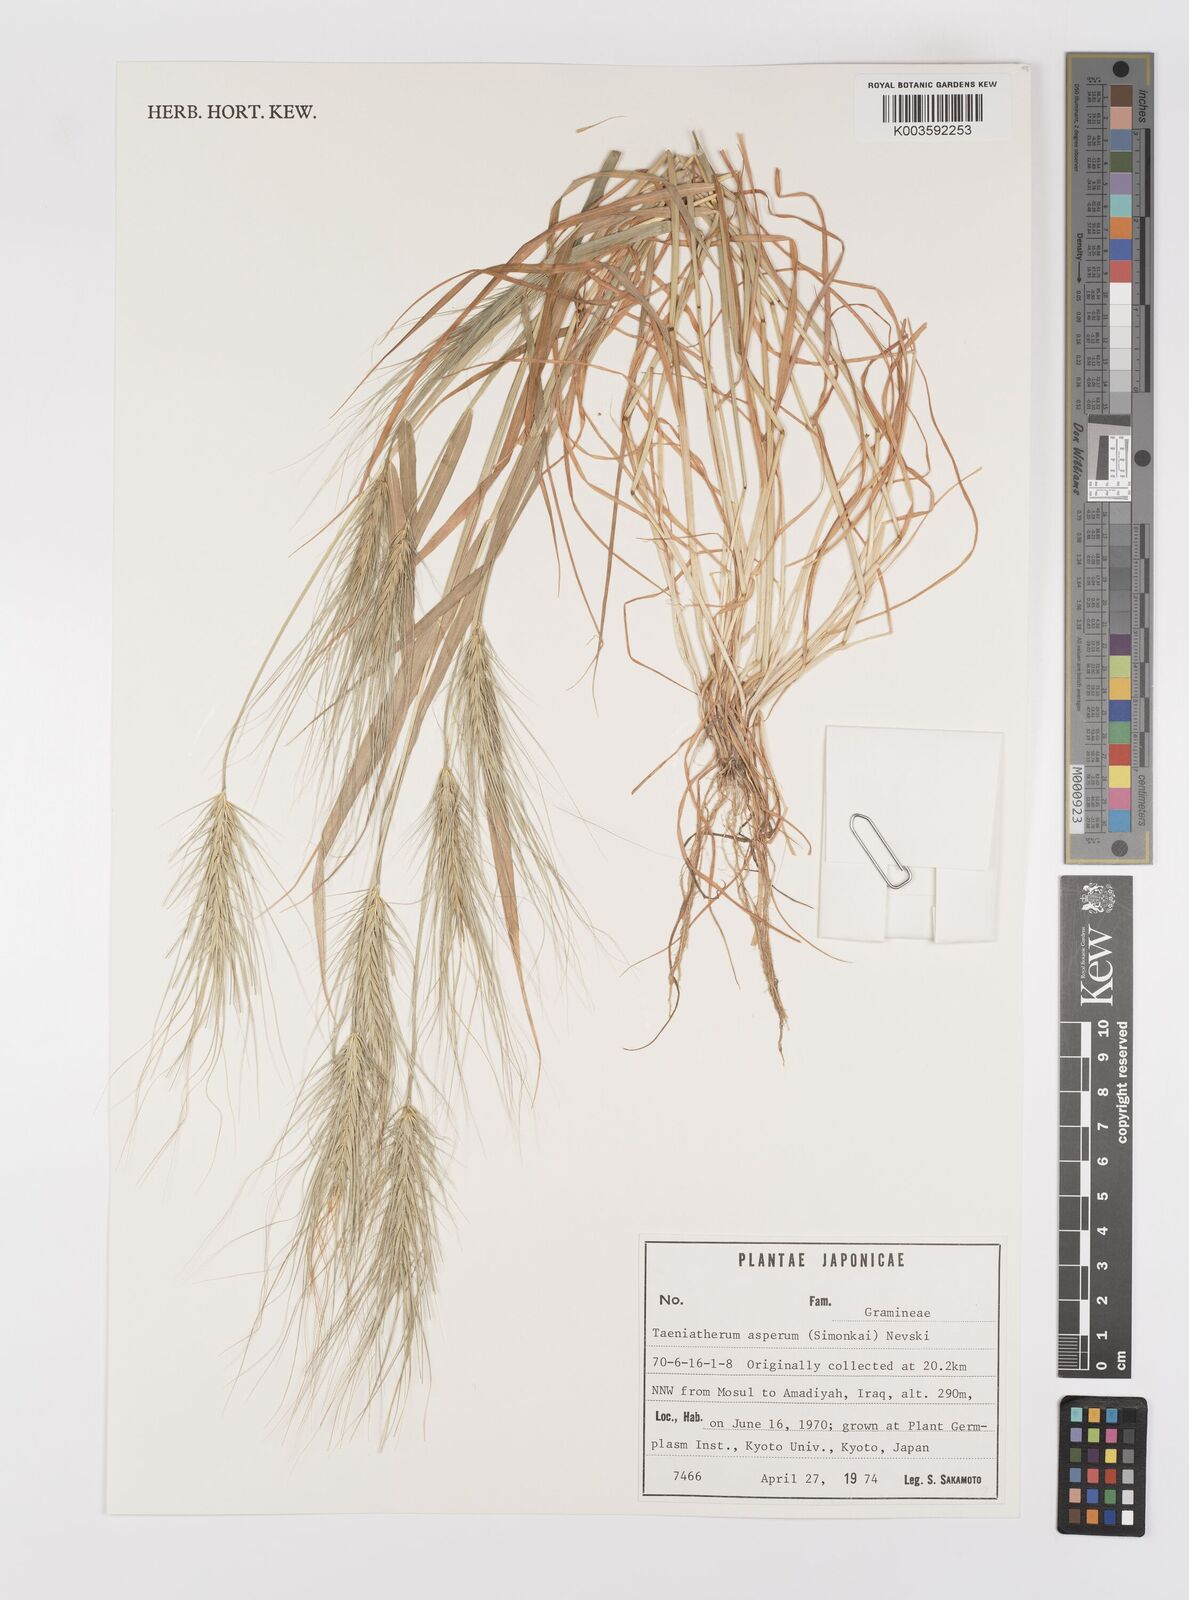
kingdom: Plantae
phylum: Tracheophyta
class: Liliopsida
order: Poales
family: Poaceae
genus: Taeniatherum
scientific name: Taeniatherum caput-medusae
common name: Medusahead
